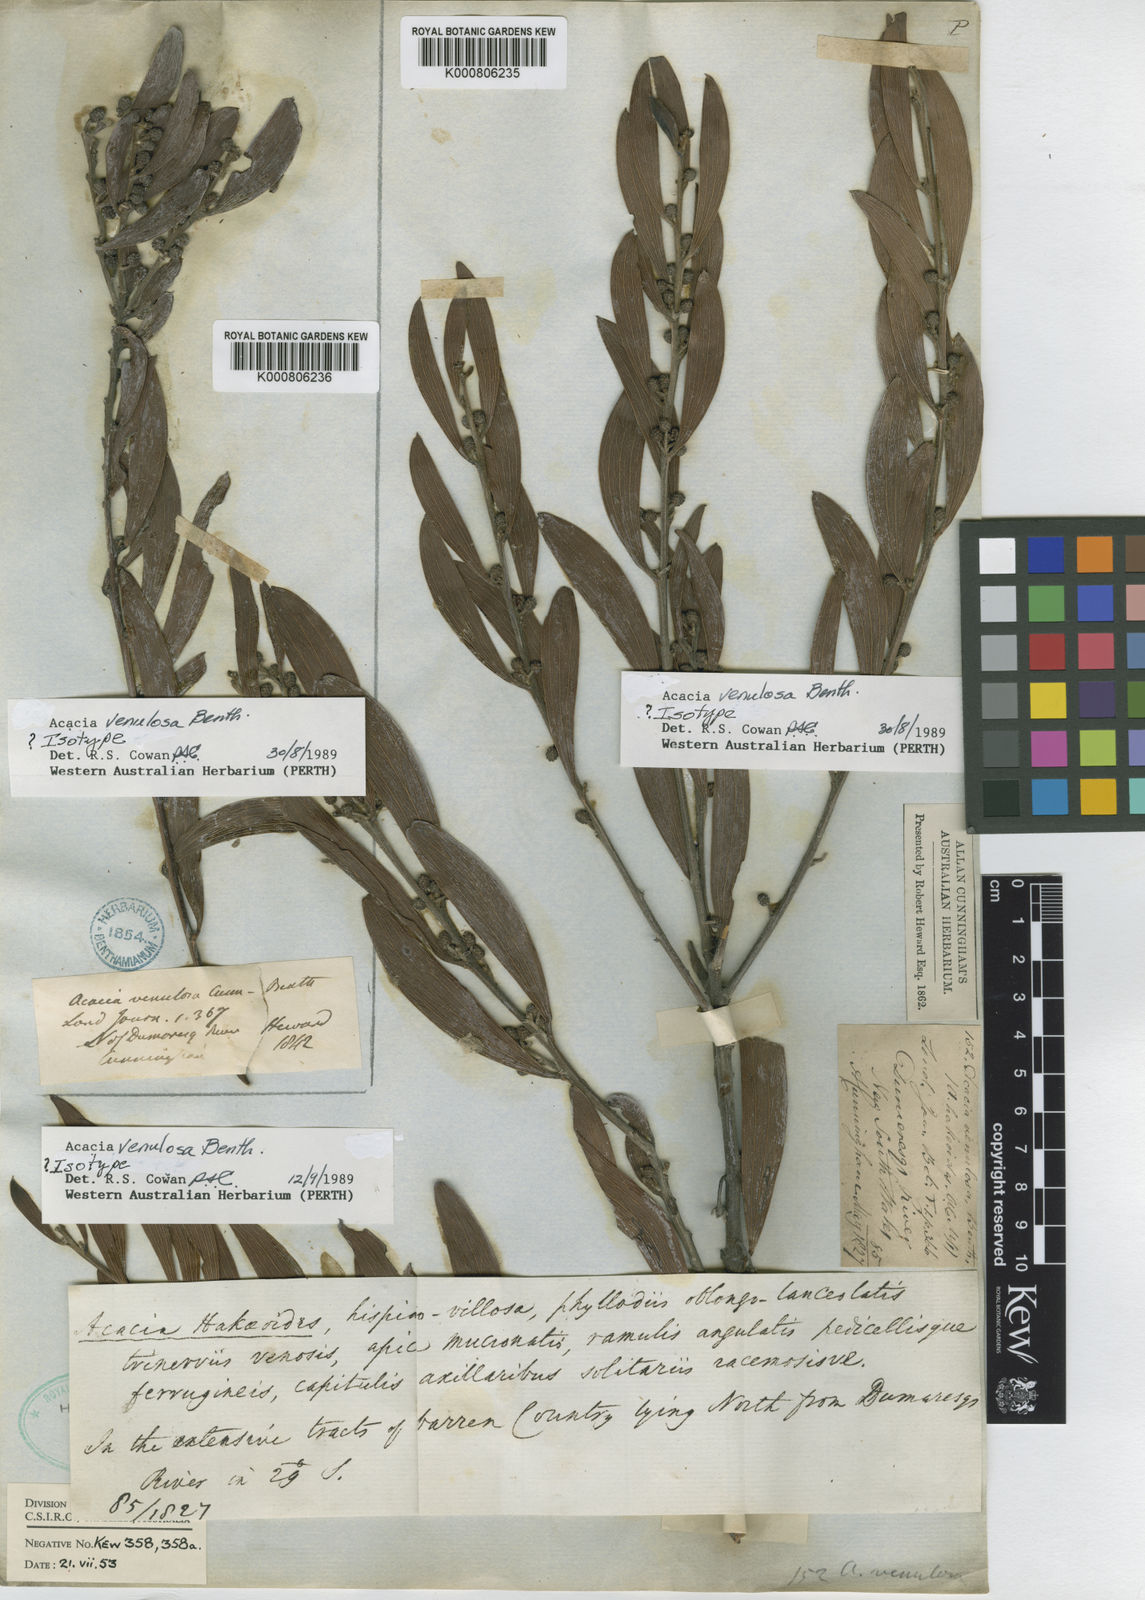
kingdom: Plantae
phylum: Tracheophyta
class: Magnoliopsida
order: Fabales
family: Fabaceae
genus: Acacia
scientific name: Acacia venulosa
